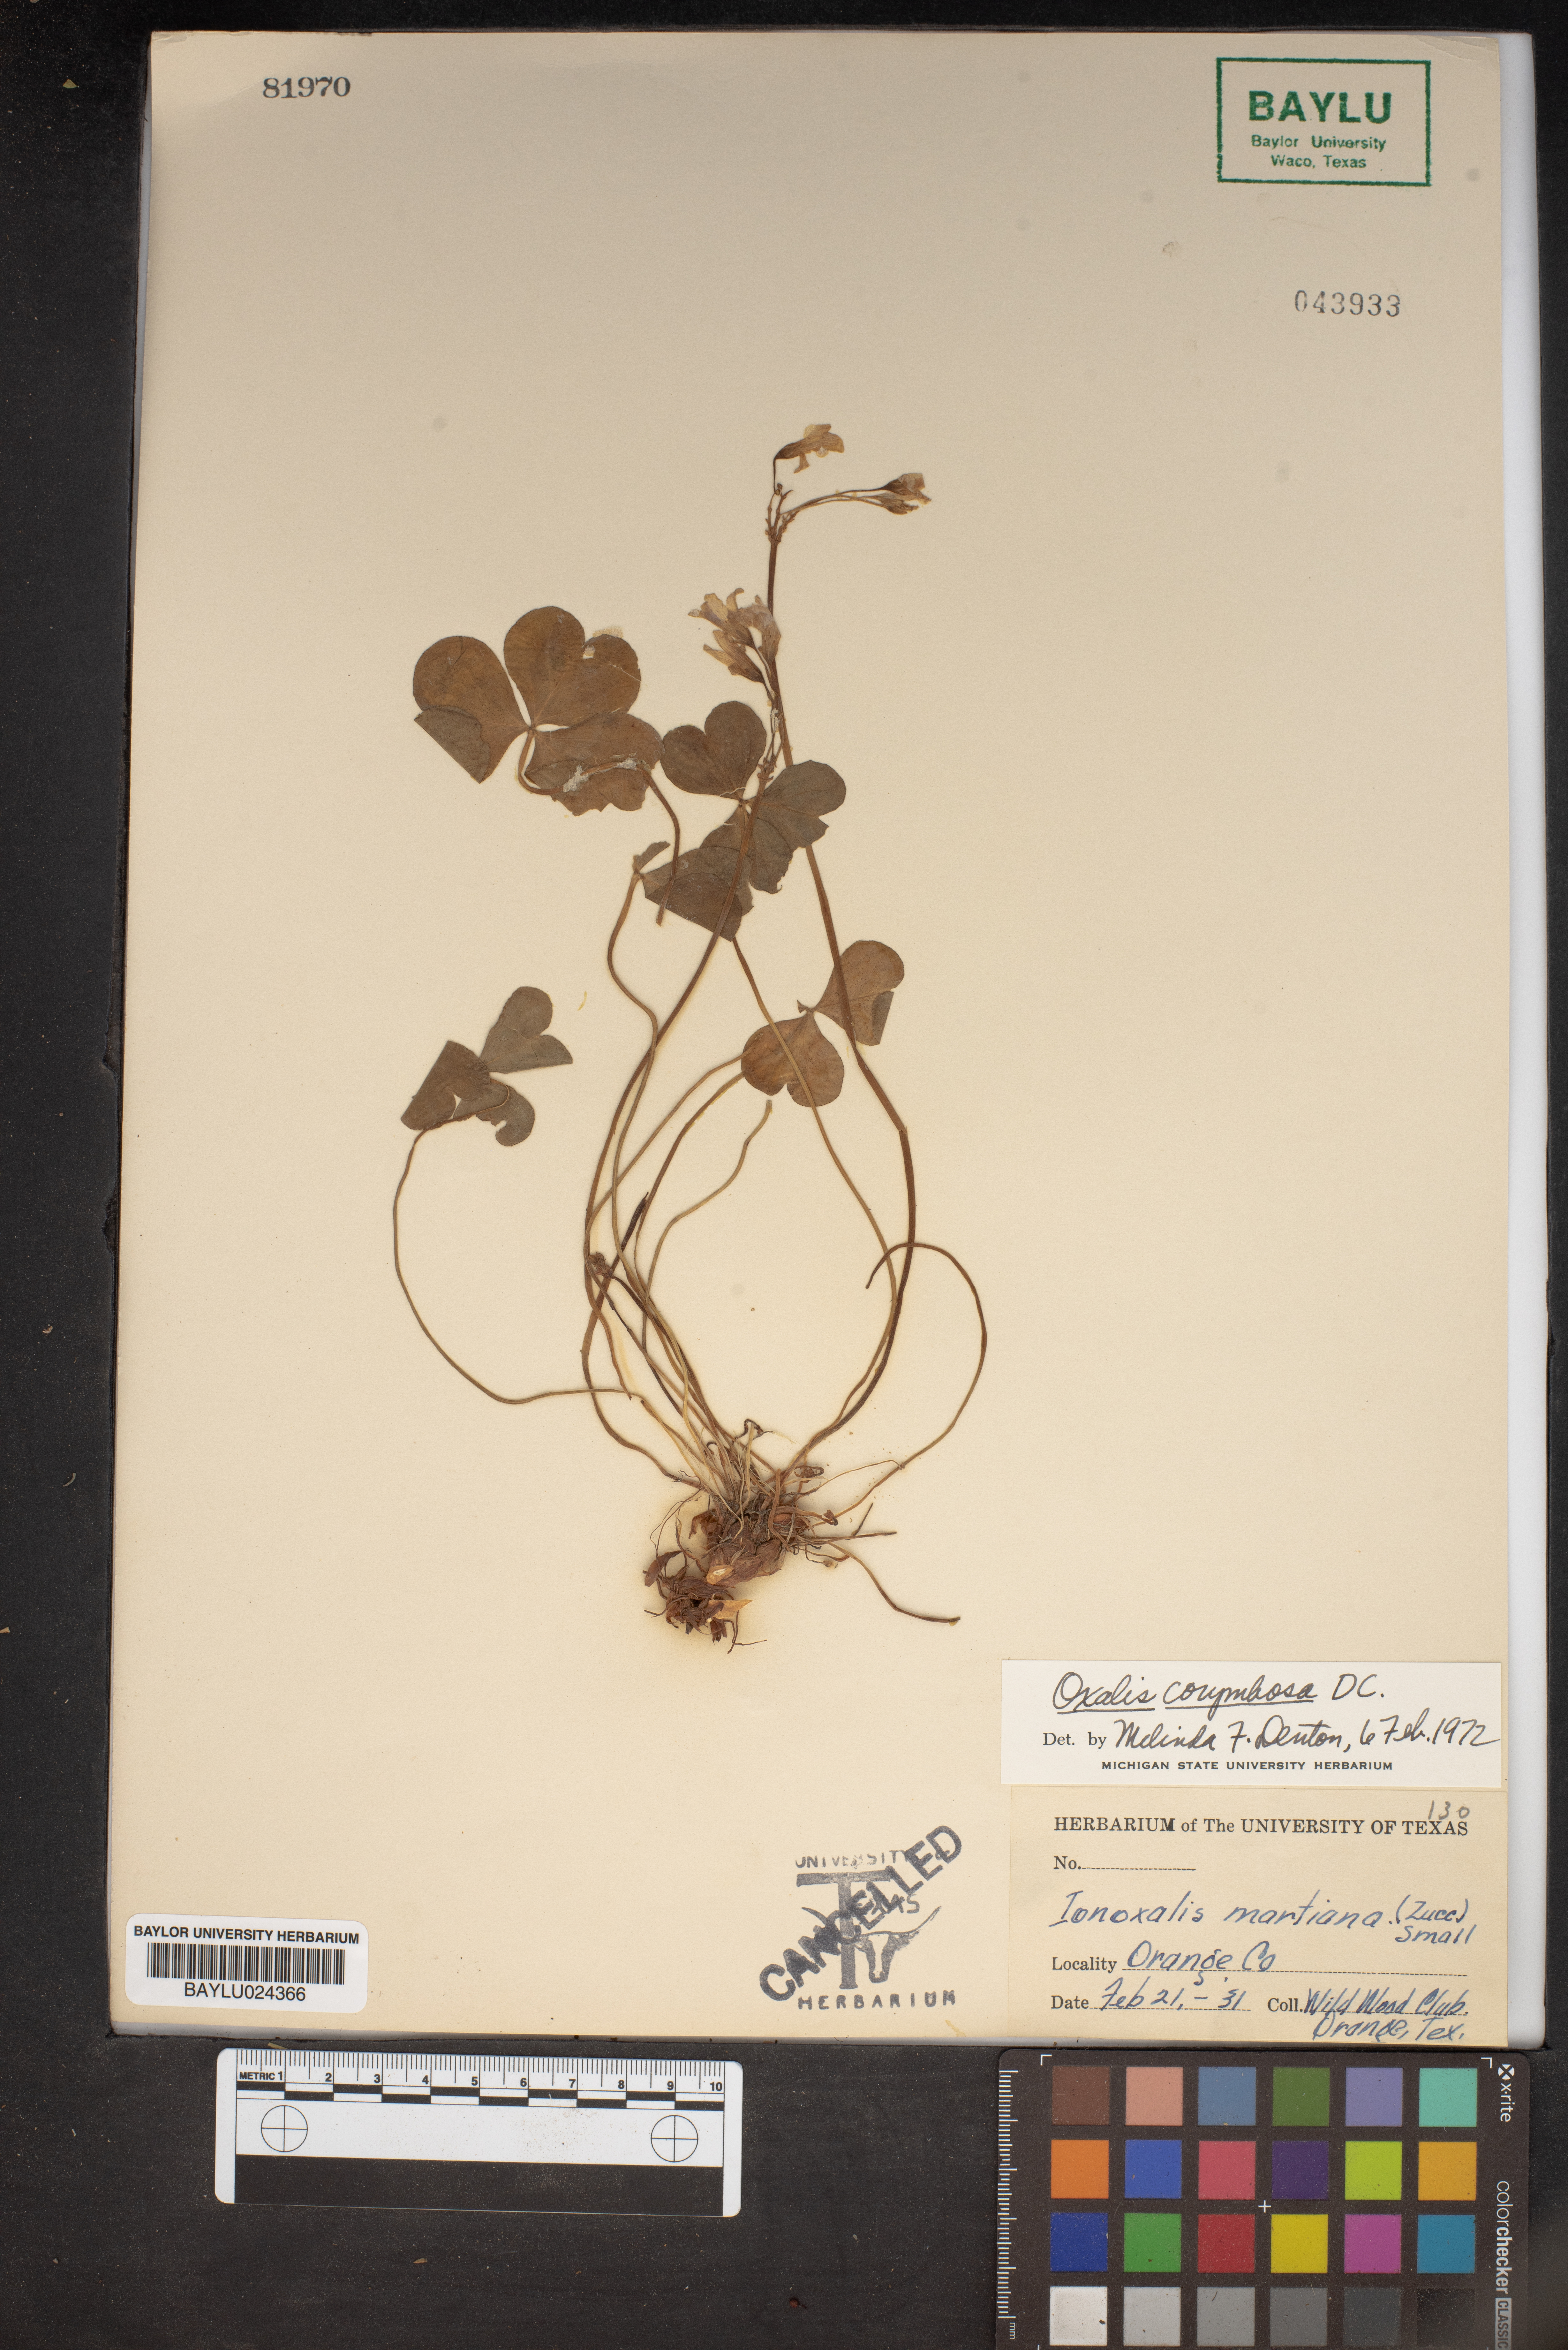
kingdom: Plantae
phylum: Tracheophyta
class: Magnoliopsida
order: Oxalidales
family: Oxalidaceae
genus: Oxalis
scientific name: Oxalis debilis
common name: Large-flowered pink-sorrel
